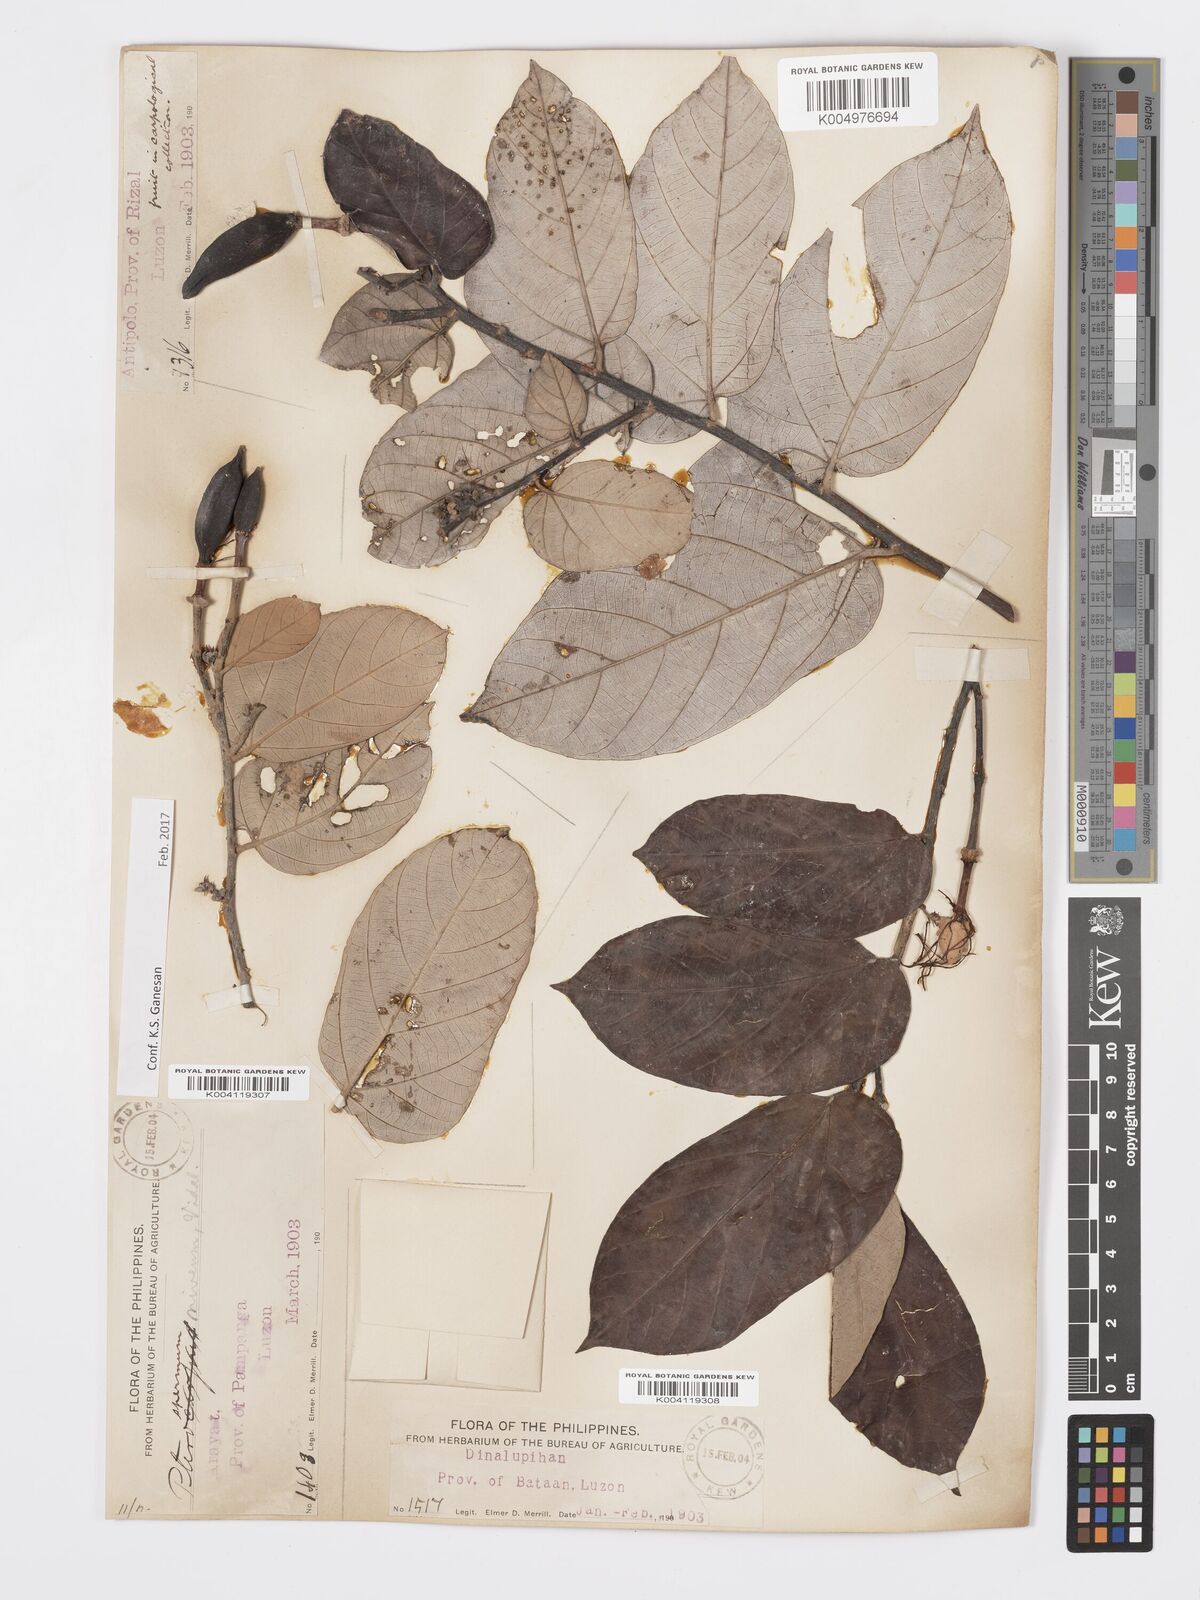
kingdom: Plantae
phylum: Tracheophyta
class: Magnoliopsida
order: Malvales
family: Malvaceae
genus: Pterospermum
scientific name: Pterospermum niveum
